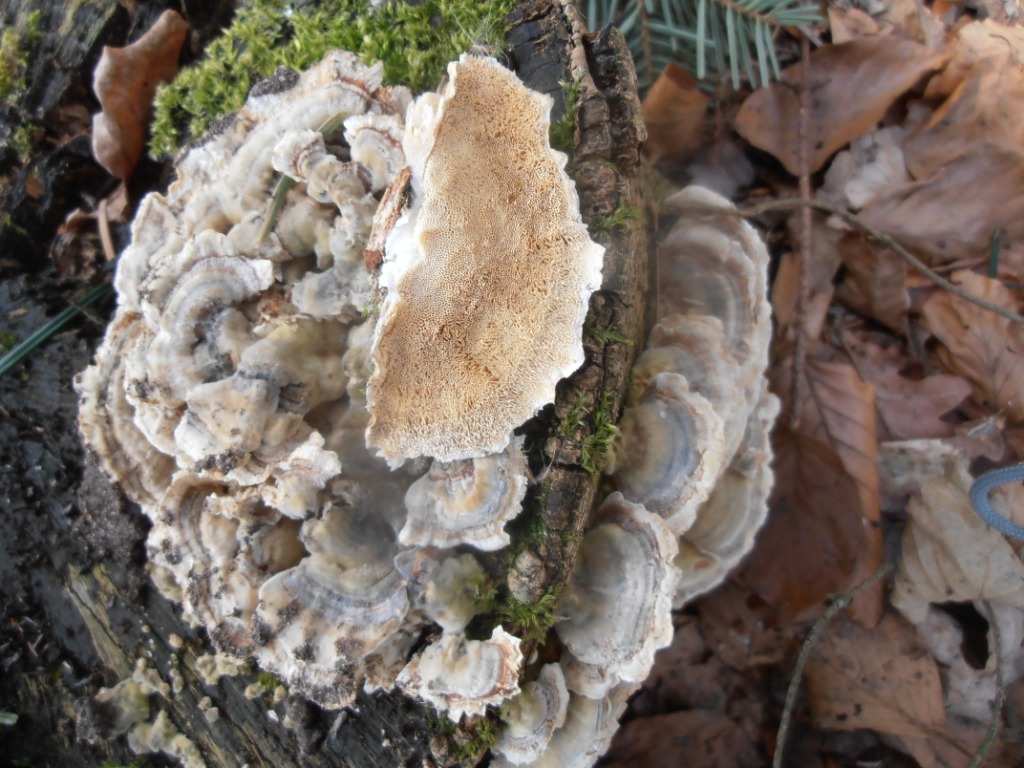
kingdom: Fungi
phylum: Basidiomycota
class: Agaricomycetes
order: Polyporales
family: Polyporaceae
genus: Trametes
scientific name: Trametes versicolor
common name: broget læderporesvamp
